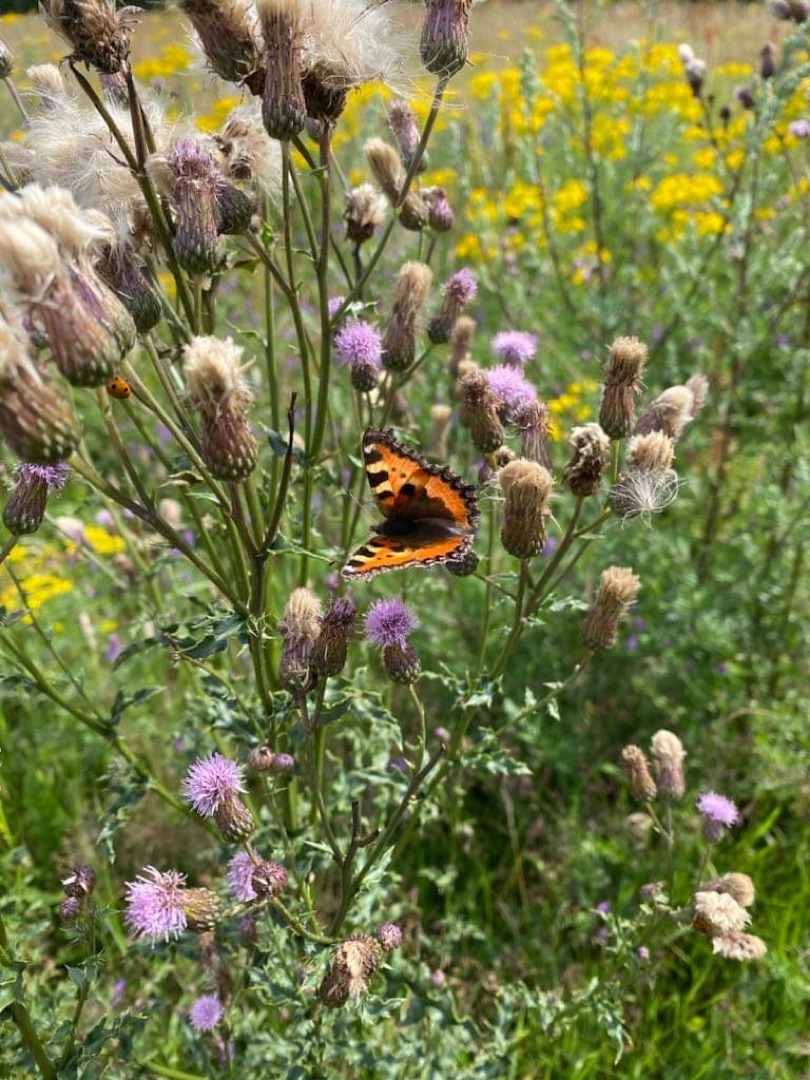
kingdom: Animalia
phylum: Arthropoda
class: Insecta
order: Lepidoptera
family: Nymphalidae
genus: Aglais
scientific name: Aglais urticae
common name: Nældens takvinge
